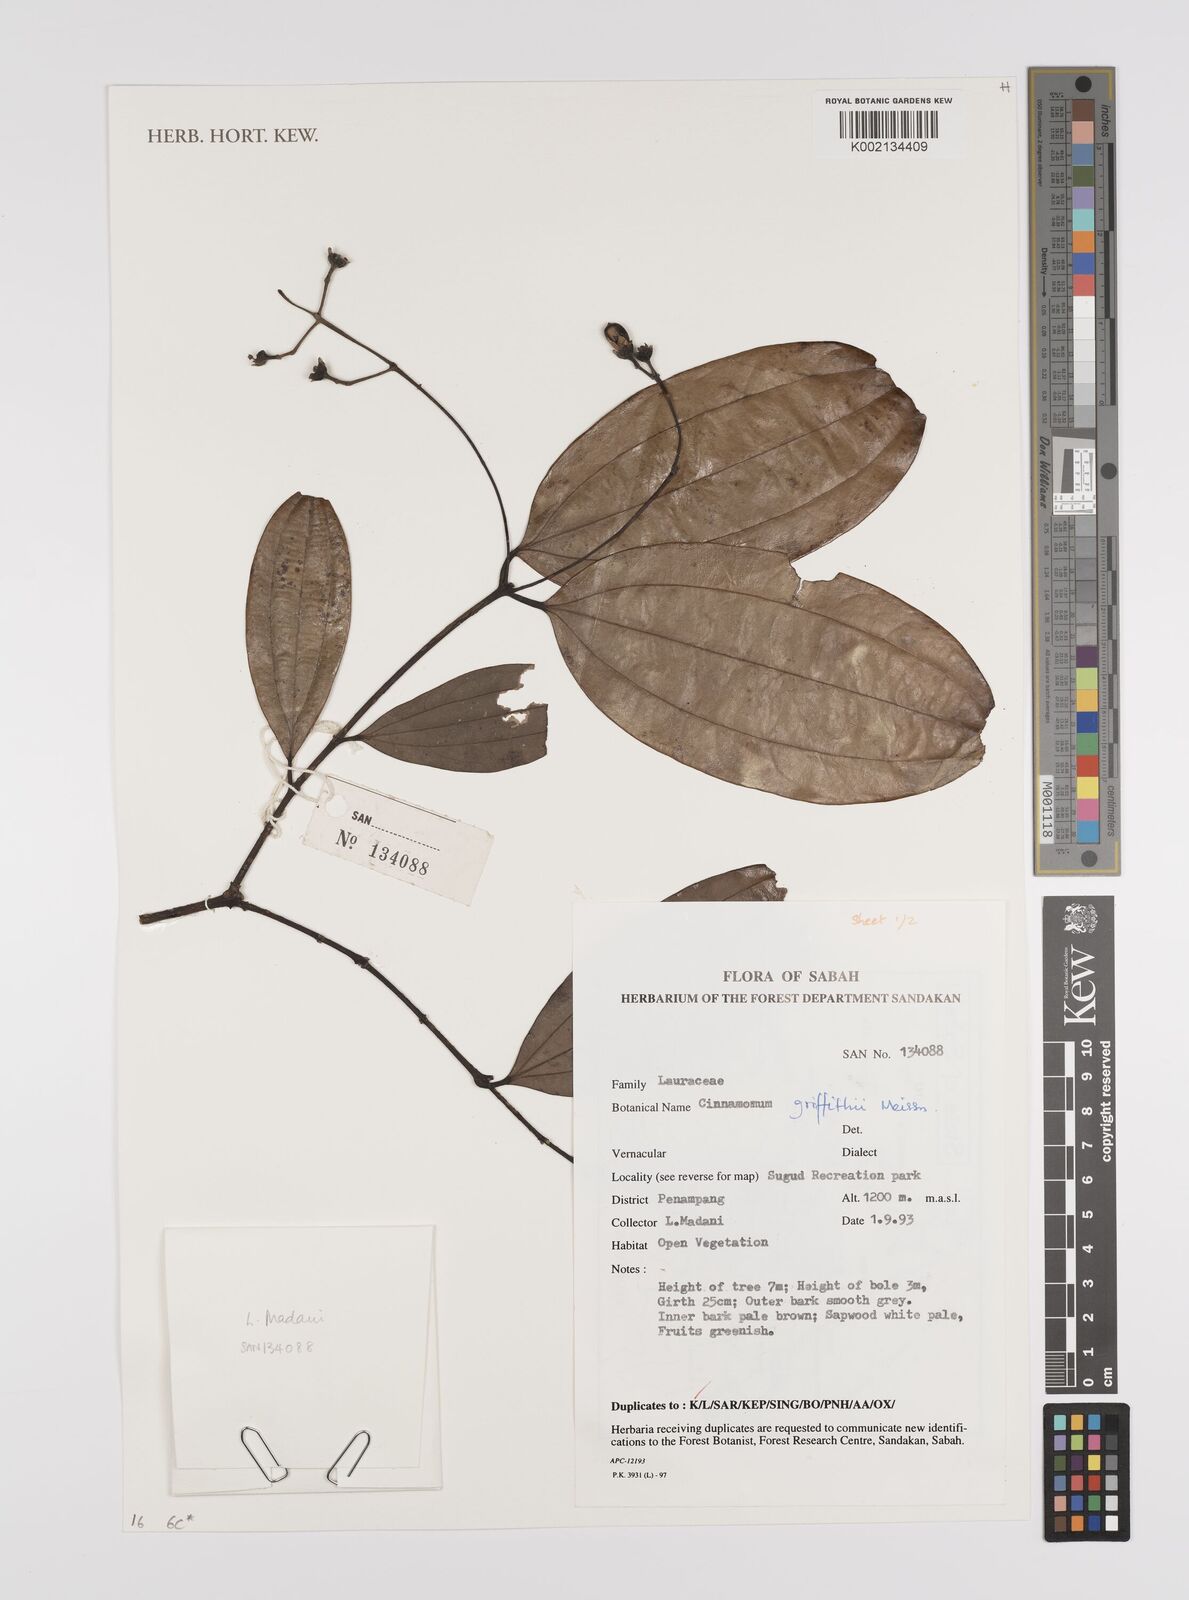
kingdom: Plantae
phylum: Tracheophyta
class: Magnoliopsida
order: Laurales
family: Lauraceae
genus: Cinnamomum
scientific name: Cinnamomum iners
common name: Wild cinnamon
